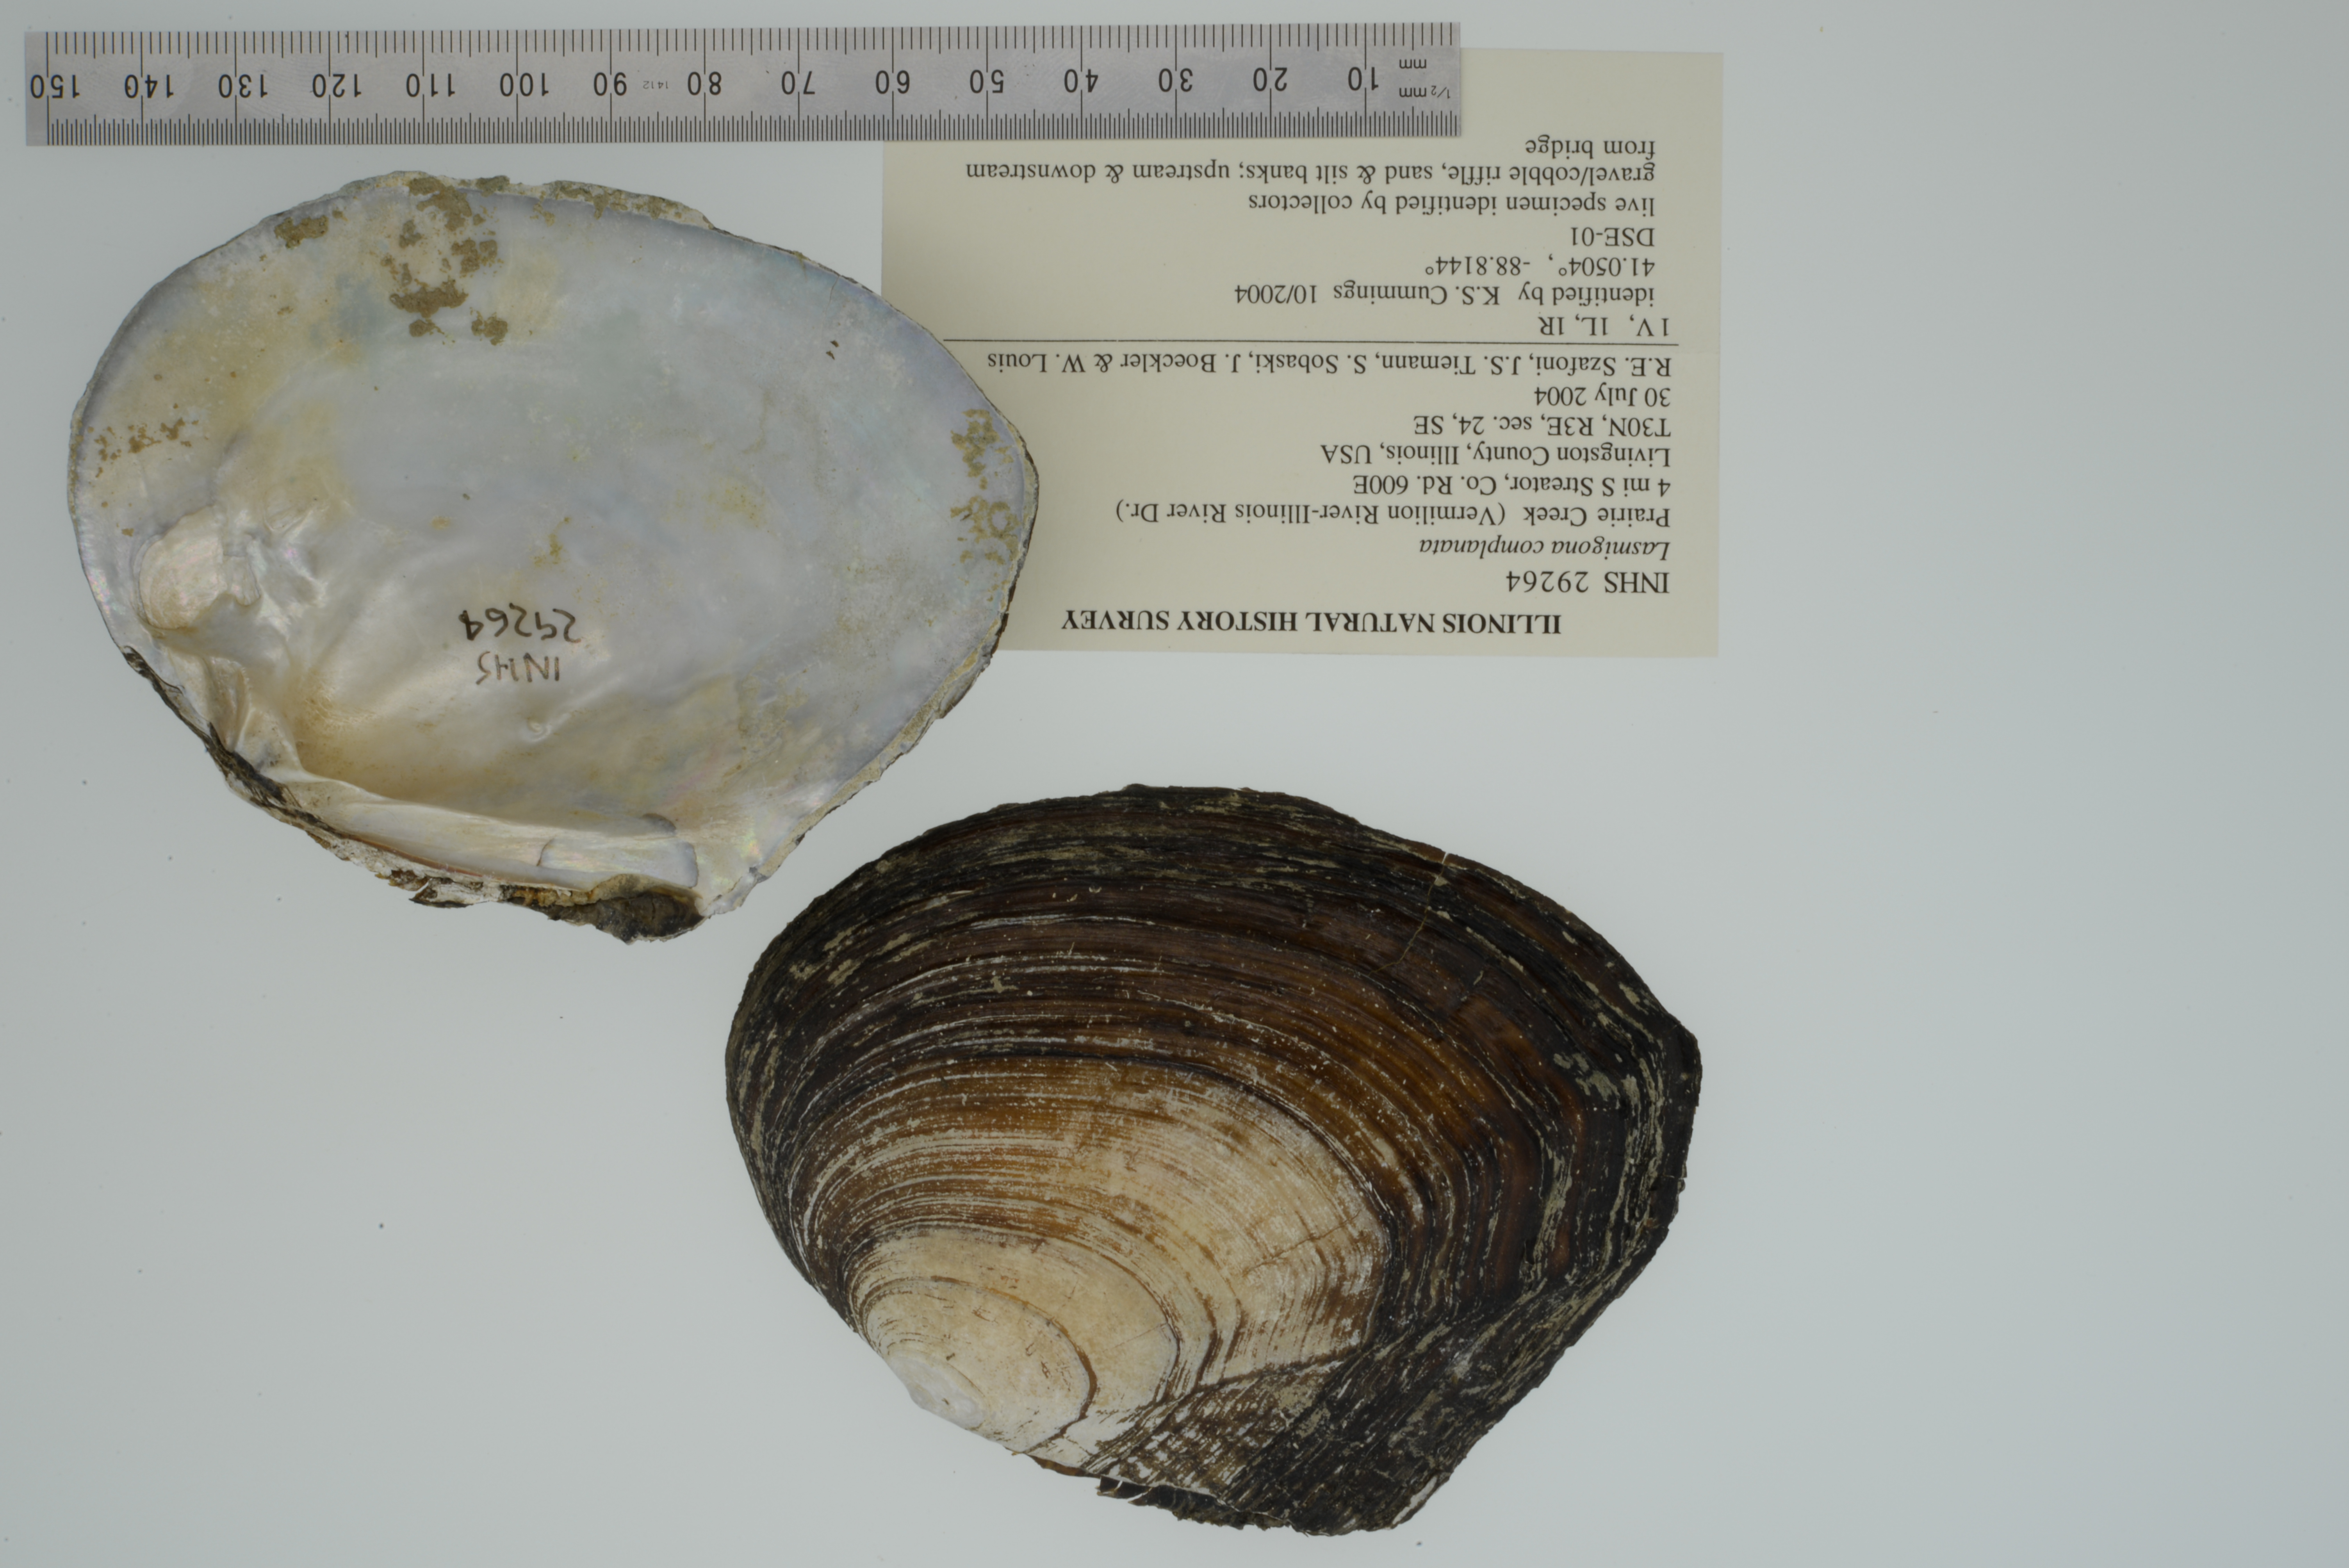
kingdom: Animalia
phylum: Mollusca
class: Bivalvia
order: Unionida
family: Unionidae
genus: Lasmigona
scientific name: Lasmigona complanata
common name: White heelsplitter
